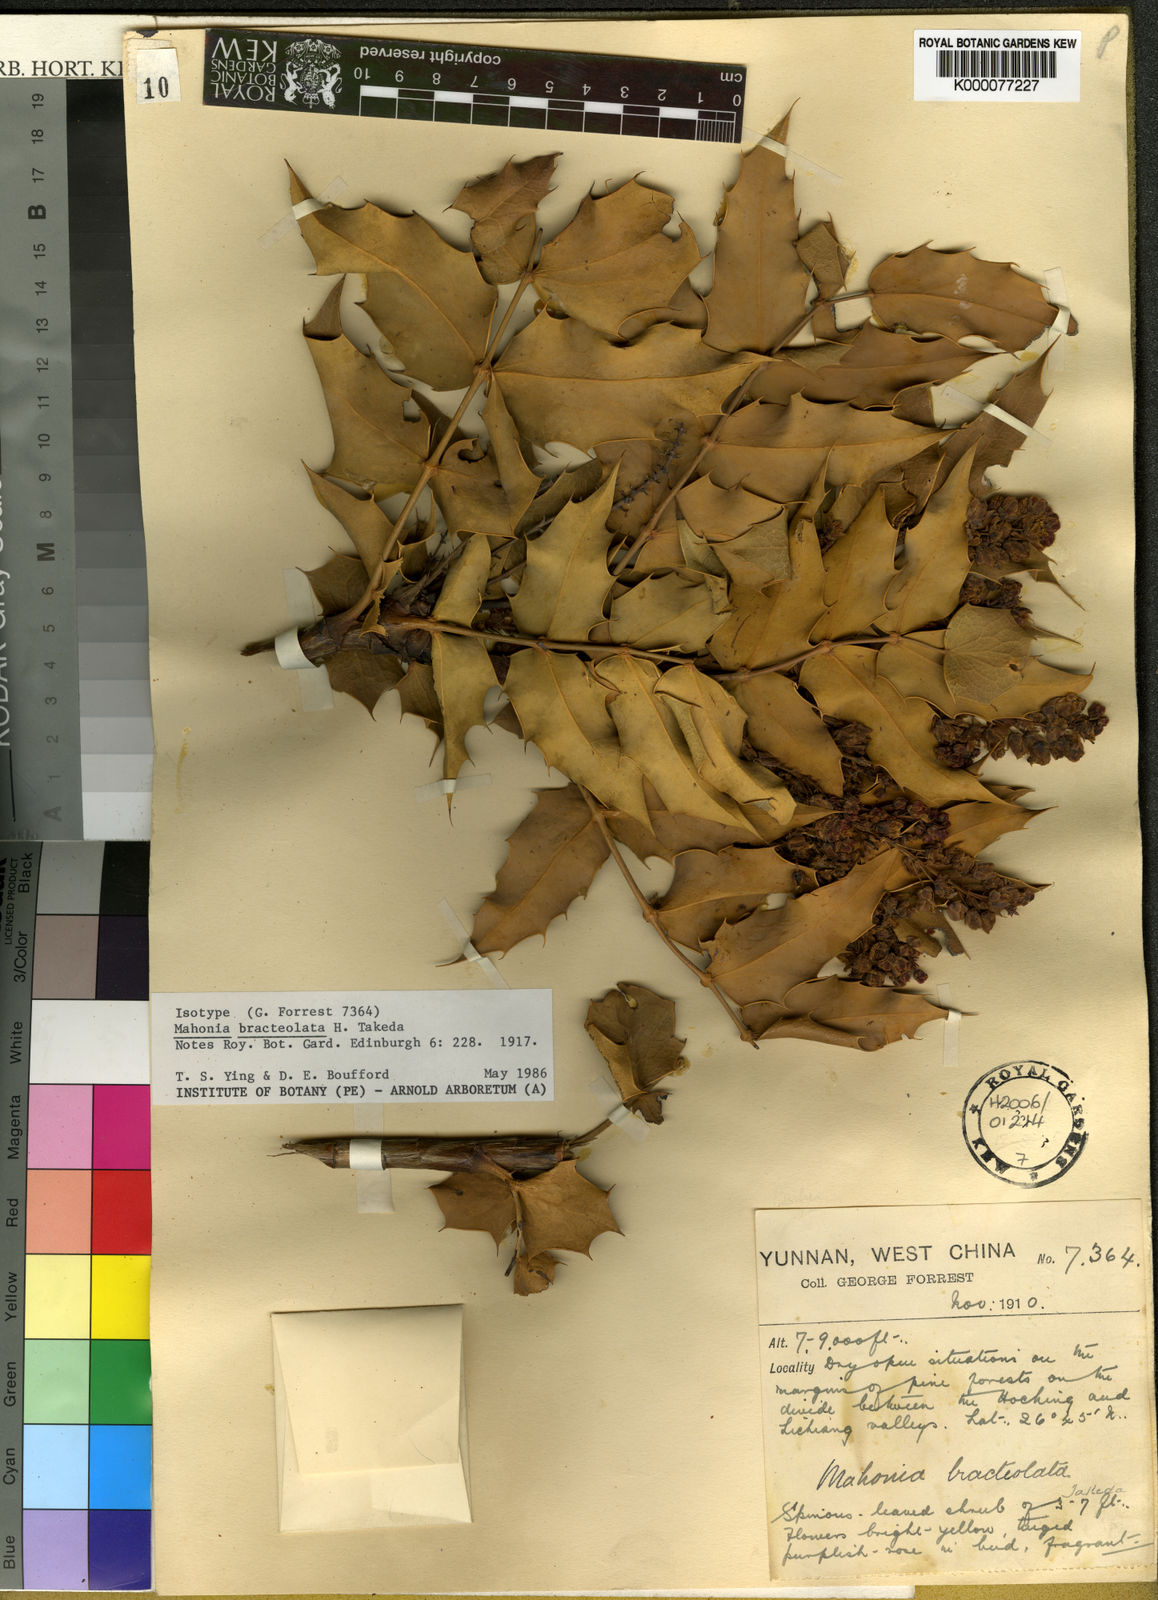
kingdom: Plantae
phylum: Tracheophyta
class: Magnoliopsida
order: Ranunculales
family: Berberidaceae
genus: Mahonia
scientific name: Mahonia bracteolata
